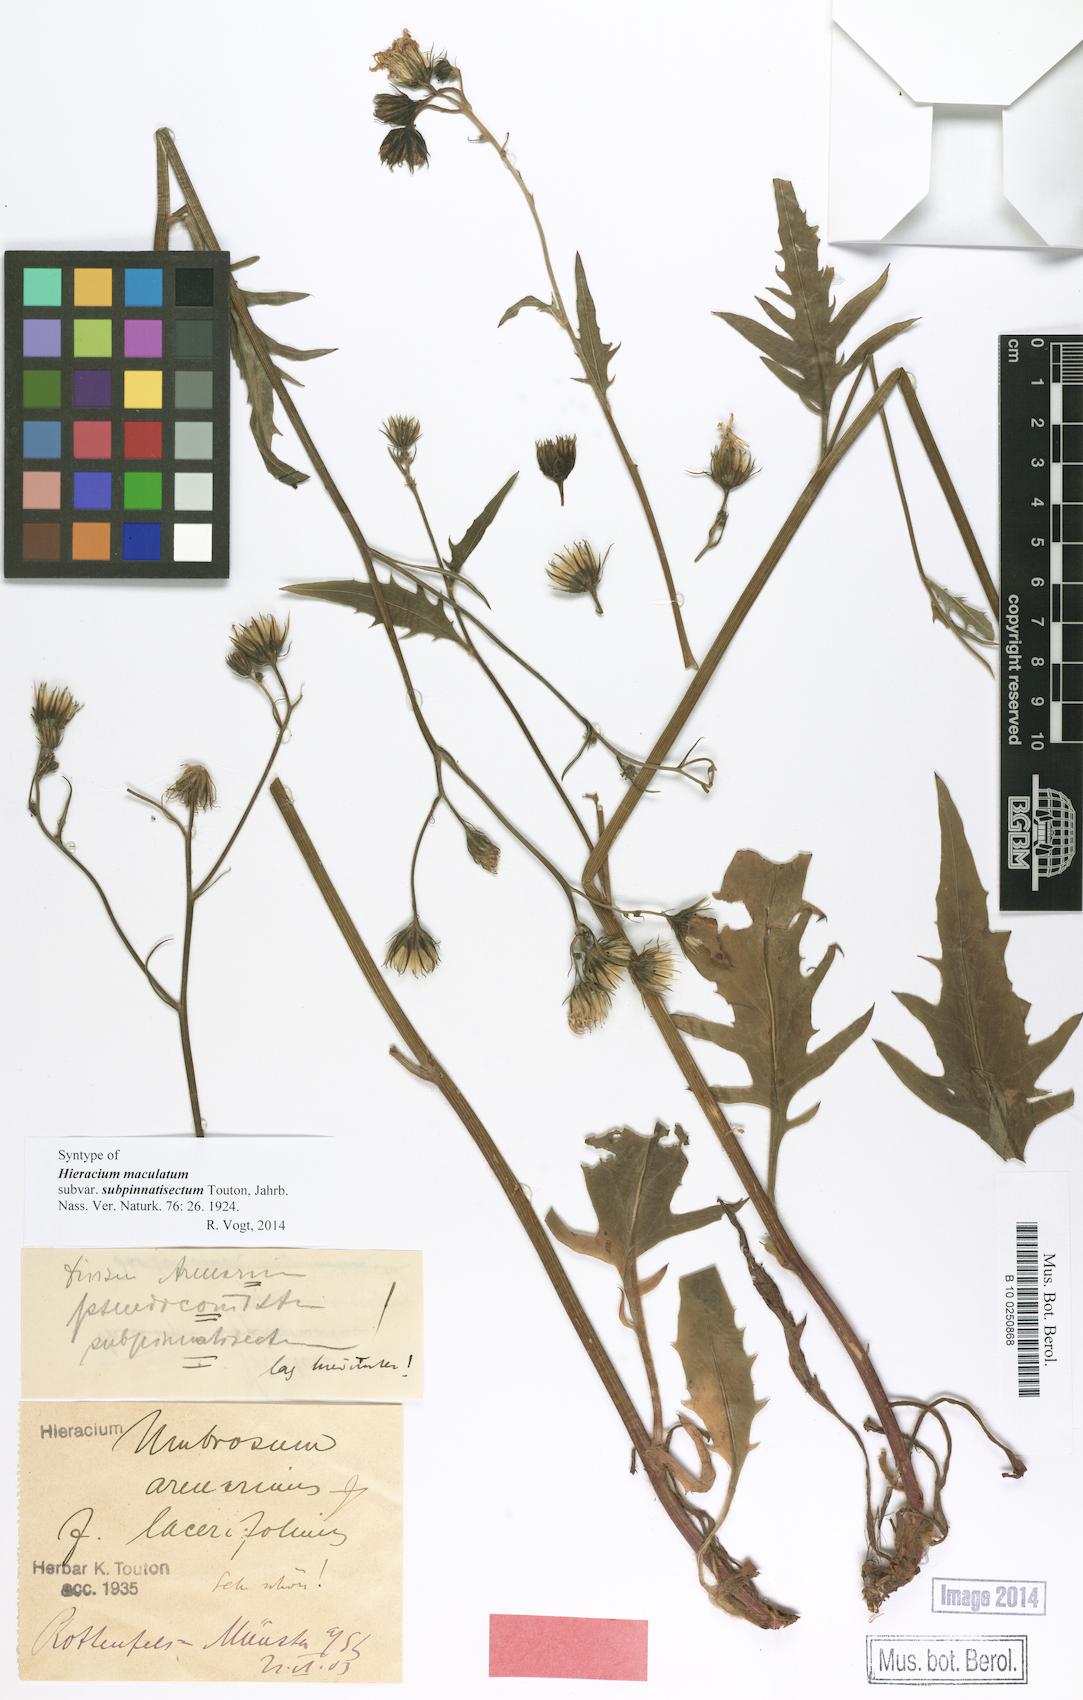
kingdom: Plantae
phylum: Tracheophyta
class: Magnoliopsida
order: Asterales
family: Asteraceae
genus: Hieracium
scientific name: Hieracium maculatum
